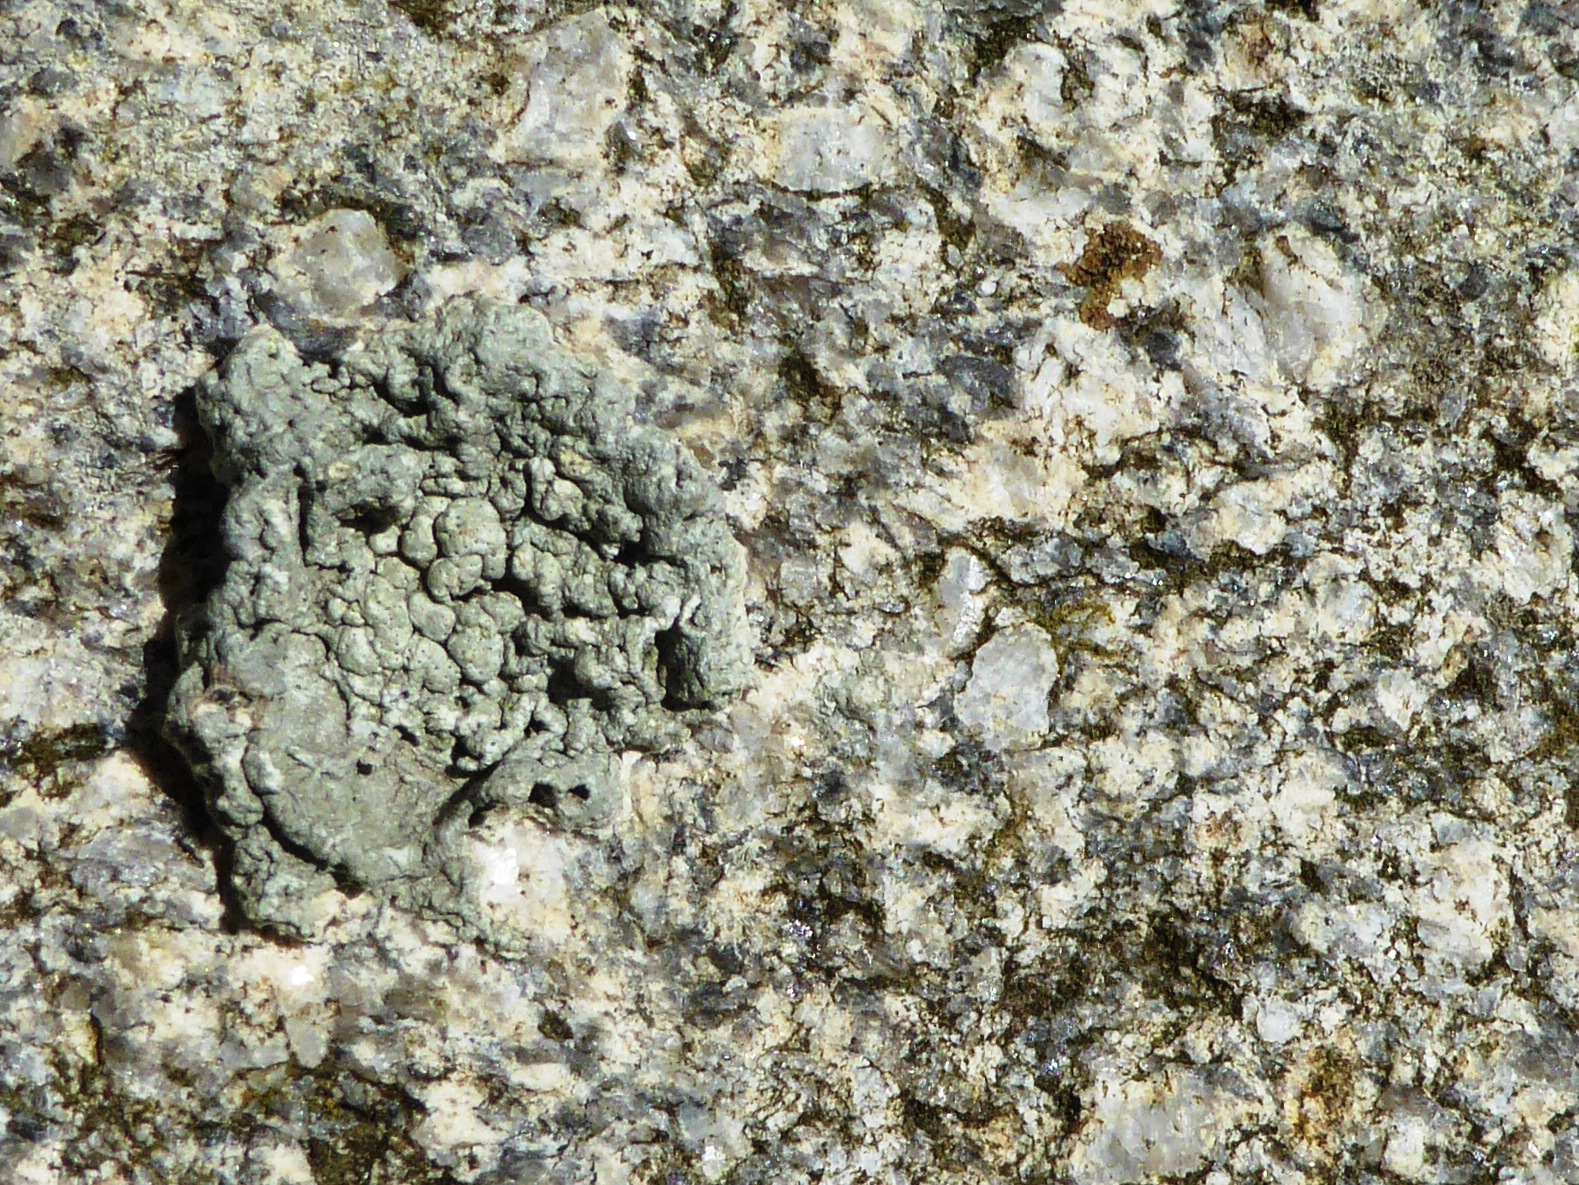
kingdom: Fungi
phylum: Ascomycota
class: Lecanoromycetes
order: Pertusariales
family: Pertusariaceae
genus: Pertusaria
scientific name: Pertusaria pertusa
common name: almindelig prikvortelav
